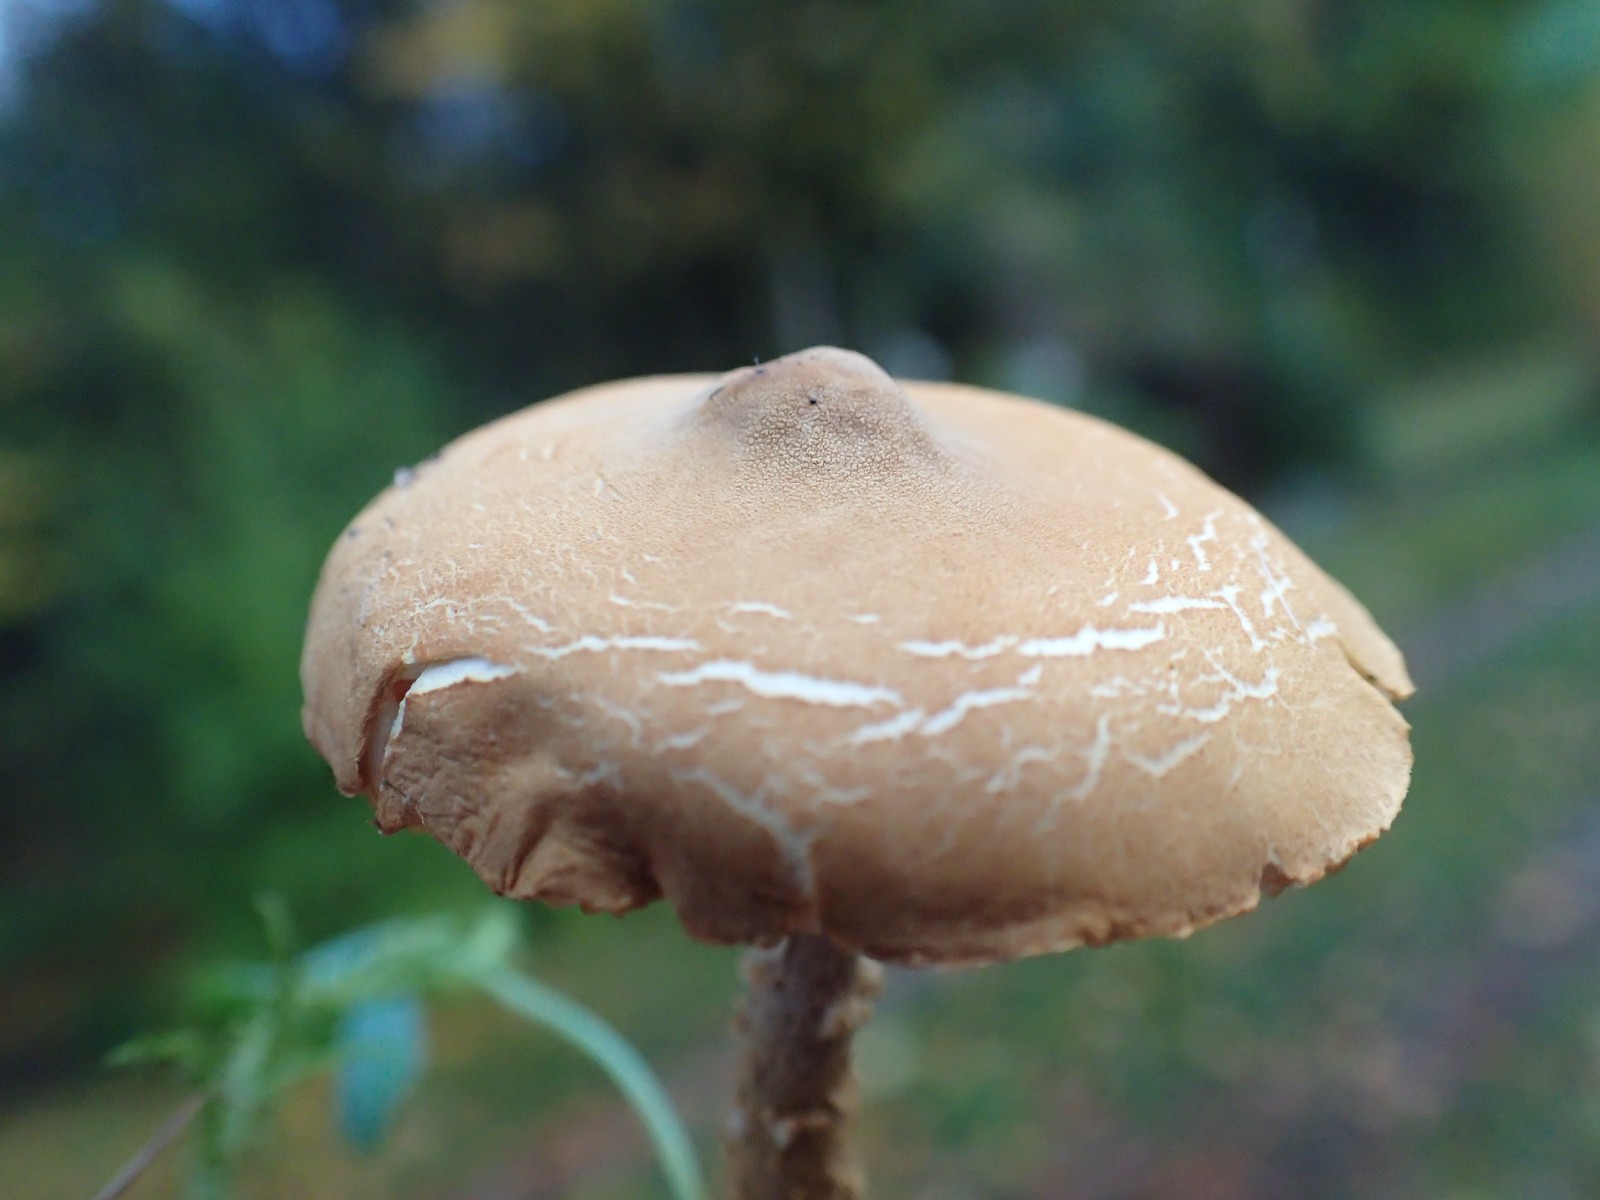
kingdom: Fungi
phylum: Basidiomycota
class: Agaricomycetes
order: Agaricales
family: Tricholomataceae
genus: Cystoderma
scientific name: Cystoderma amianthinum
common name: okkergul grynhat
